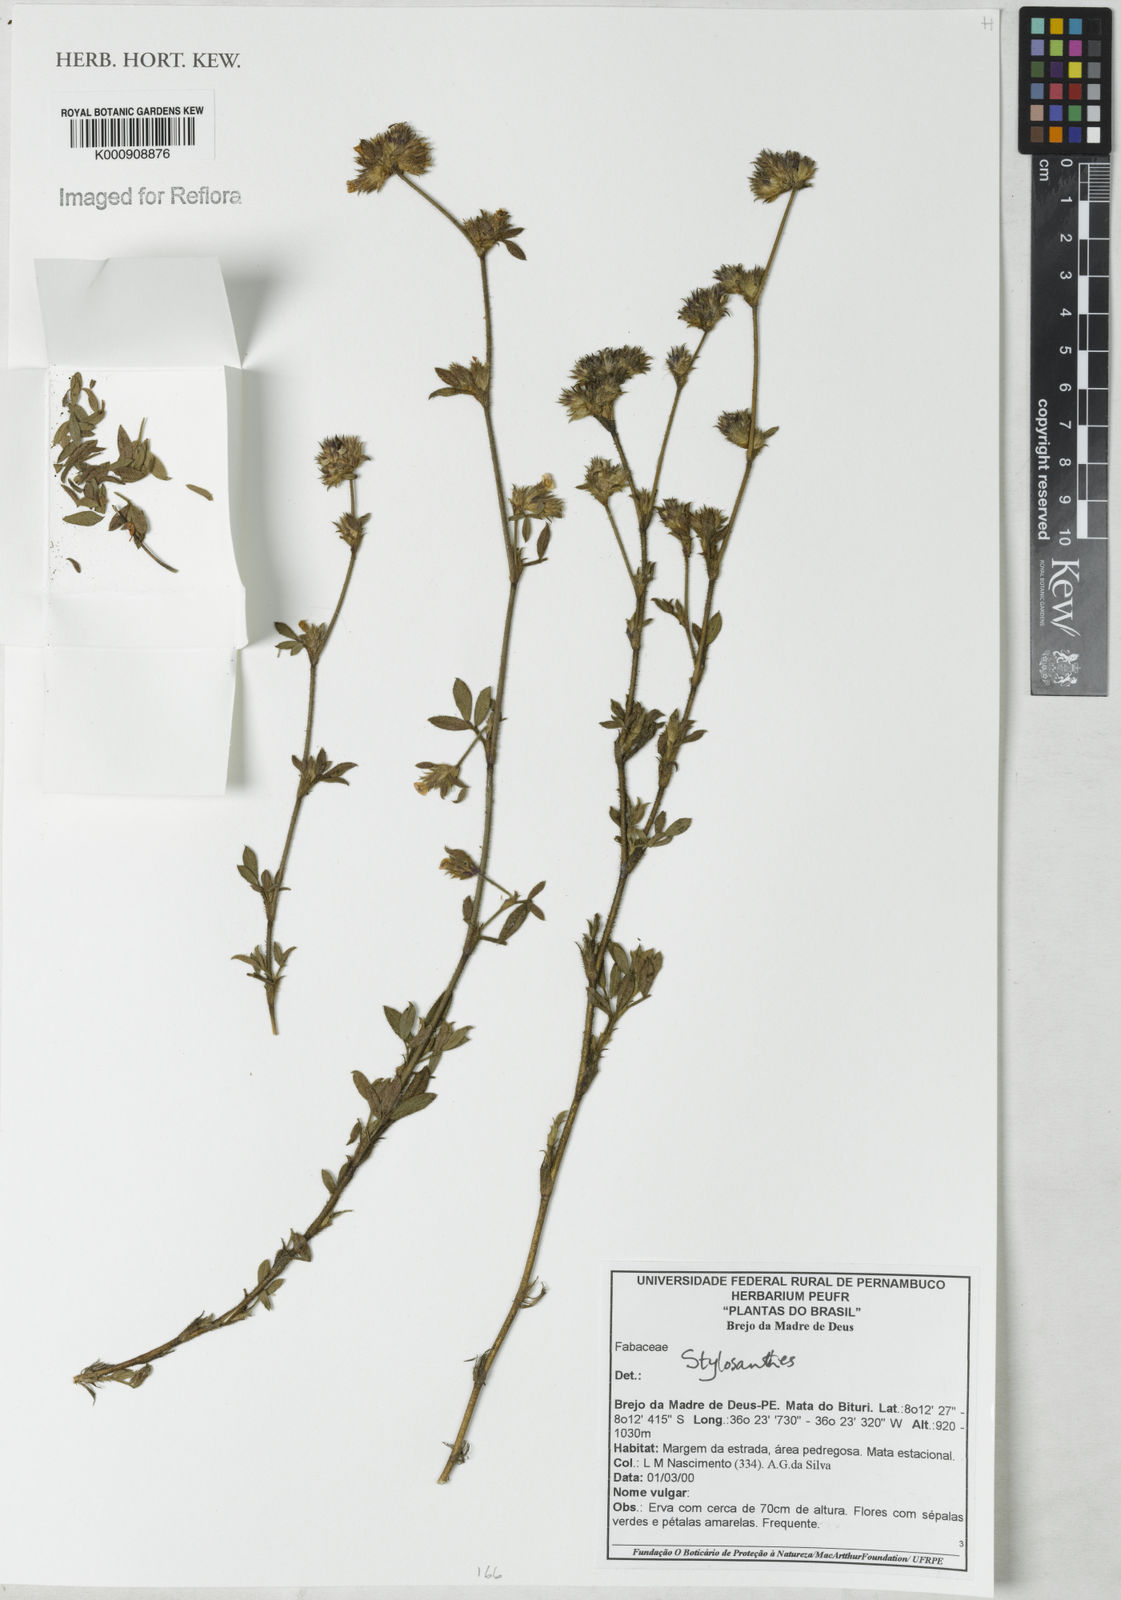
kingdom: Plantae
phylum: Tracheophyta
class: Magnoliopsida
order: Fabales
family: Fabaceae
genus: Stylosanthes
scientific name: Stylosanthes
